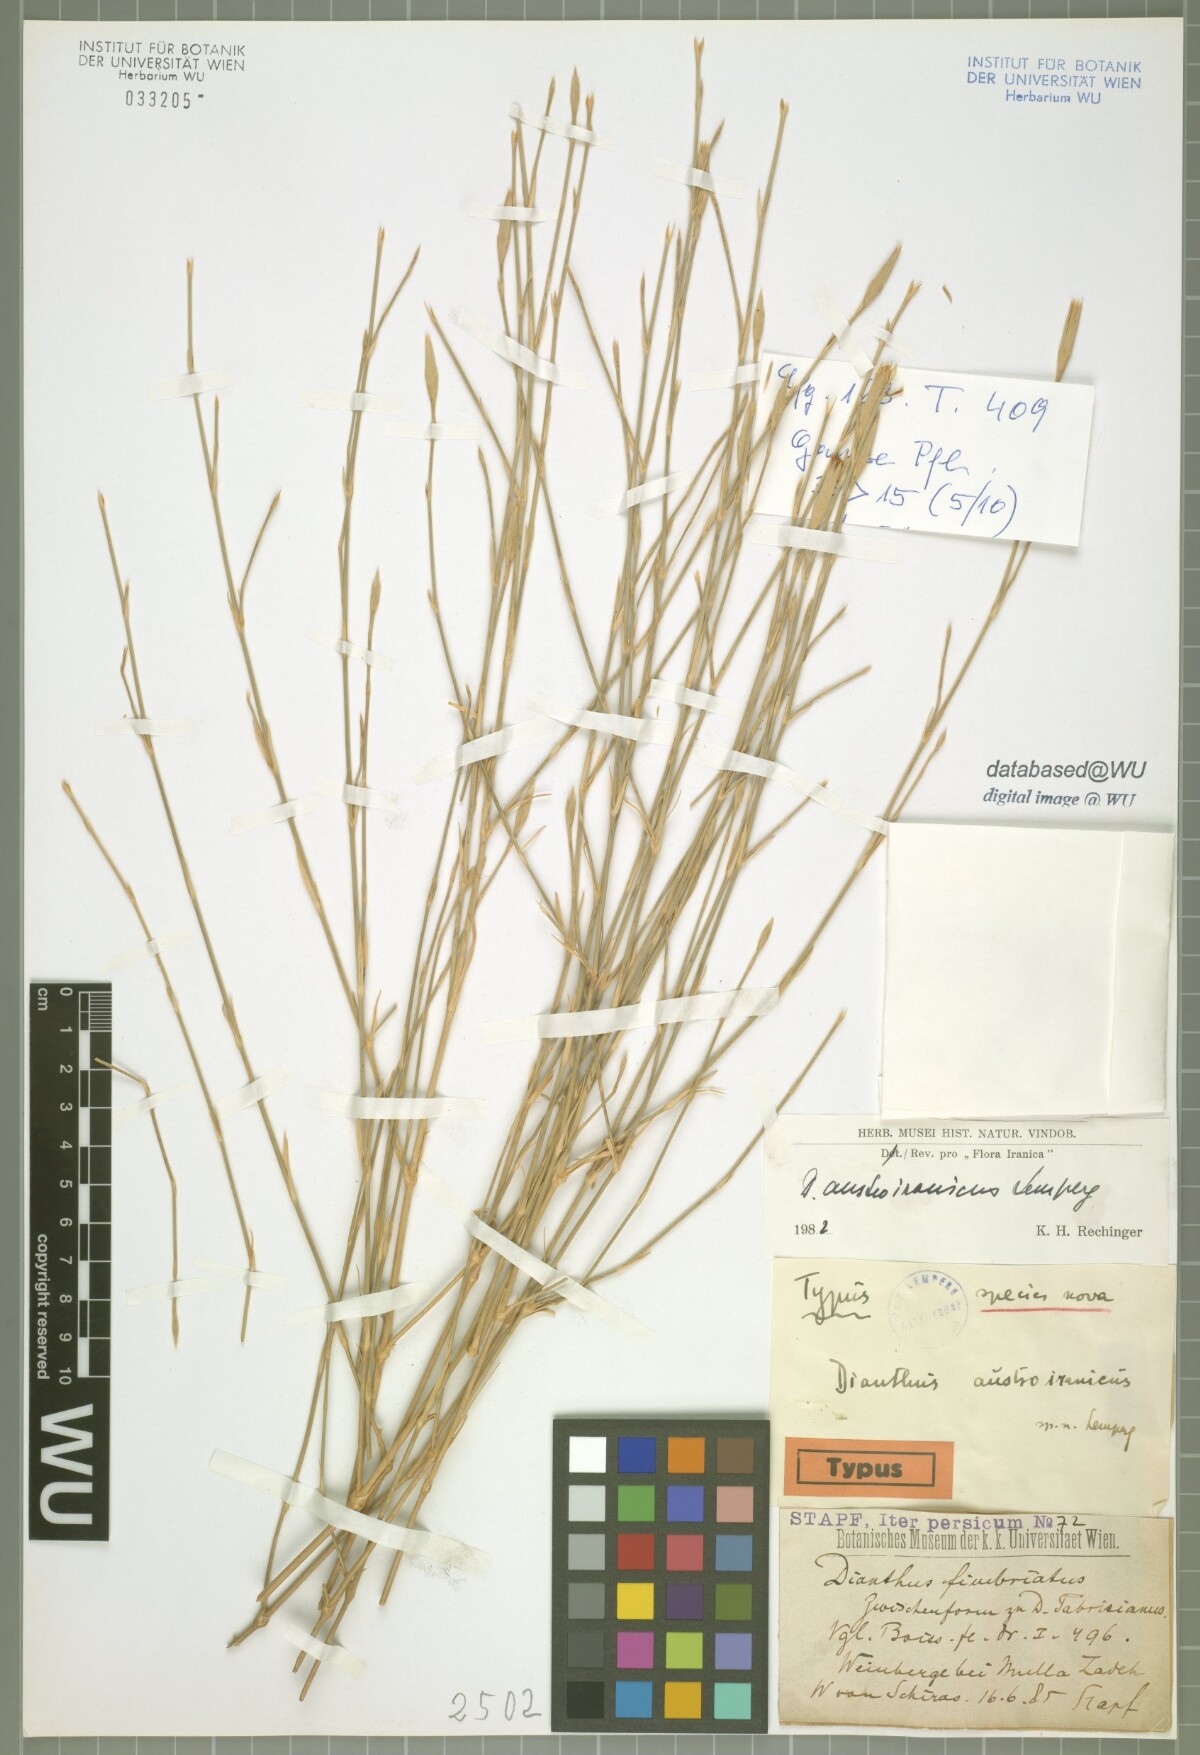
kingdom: Plantae
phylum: Tracheophyta
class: Magnoliopsida
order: Caryophyllales
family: Caryophyllaceae
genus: Dianthus
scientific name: Dianthus austroiranicus
